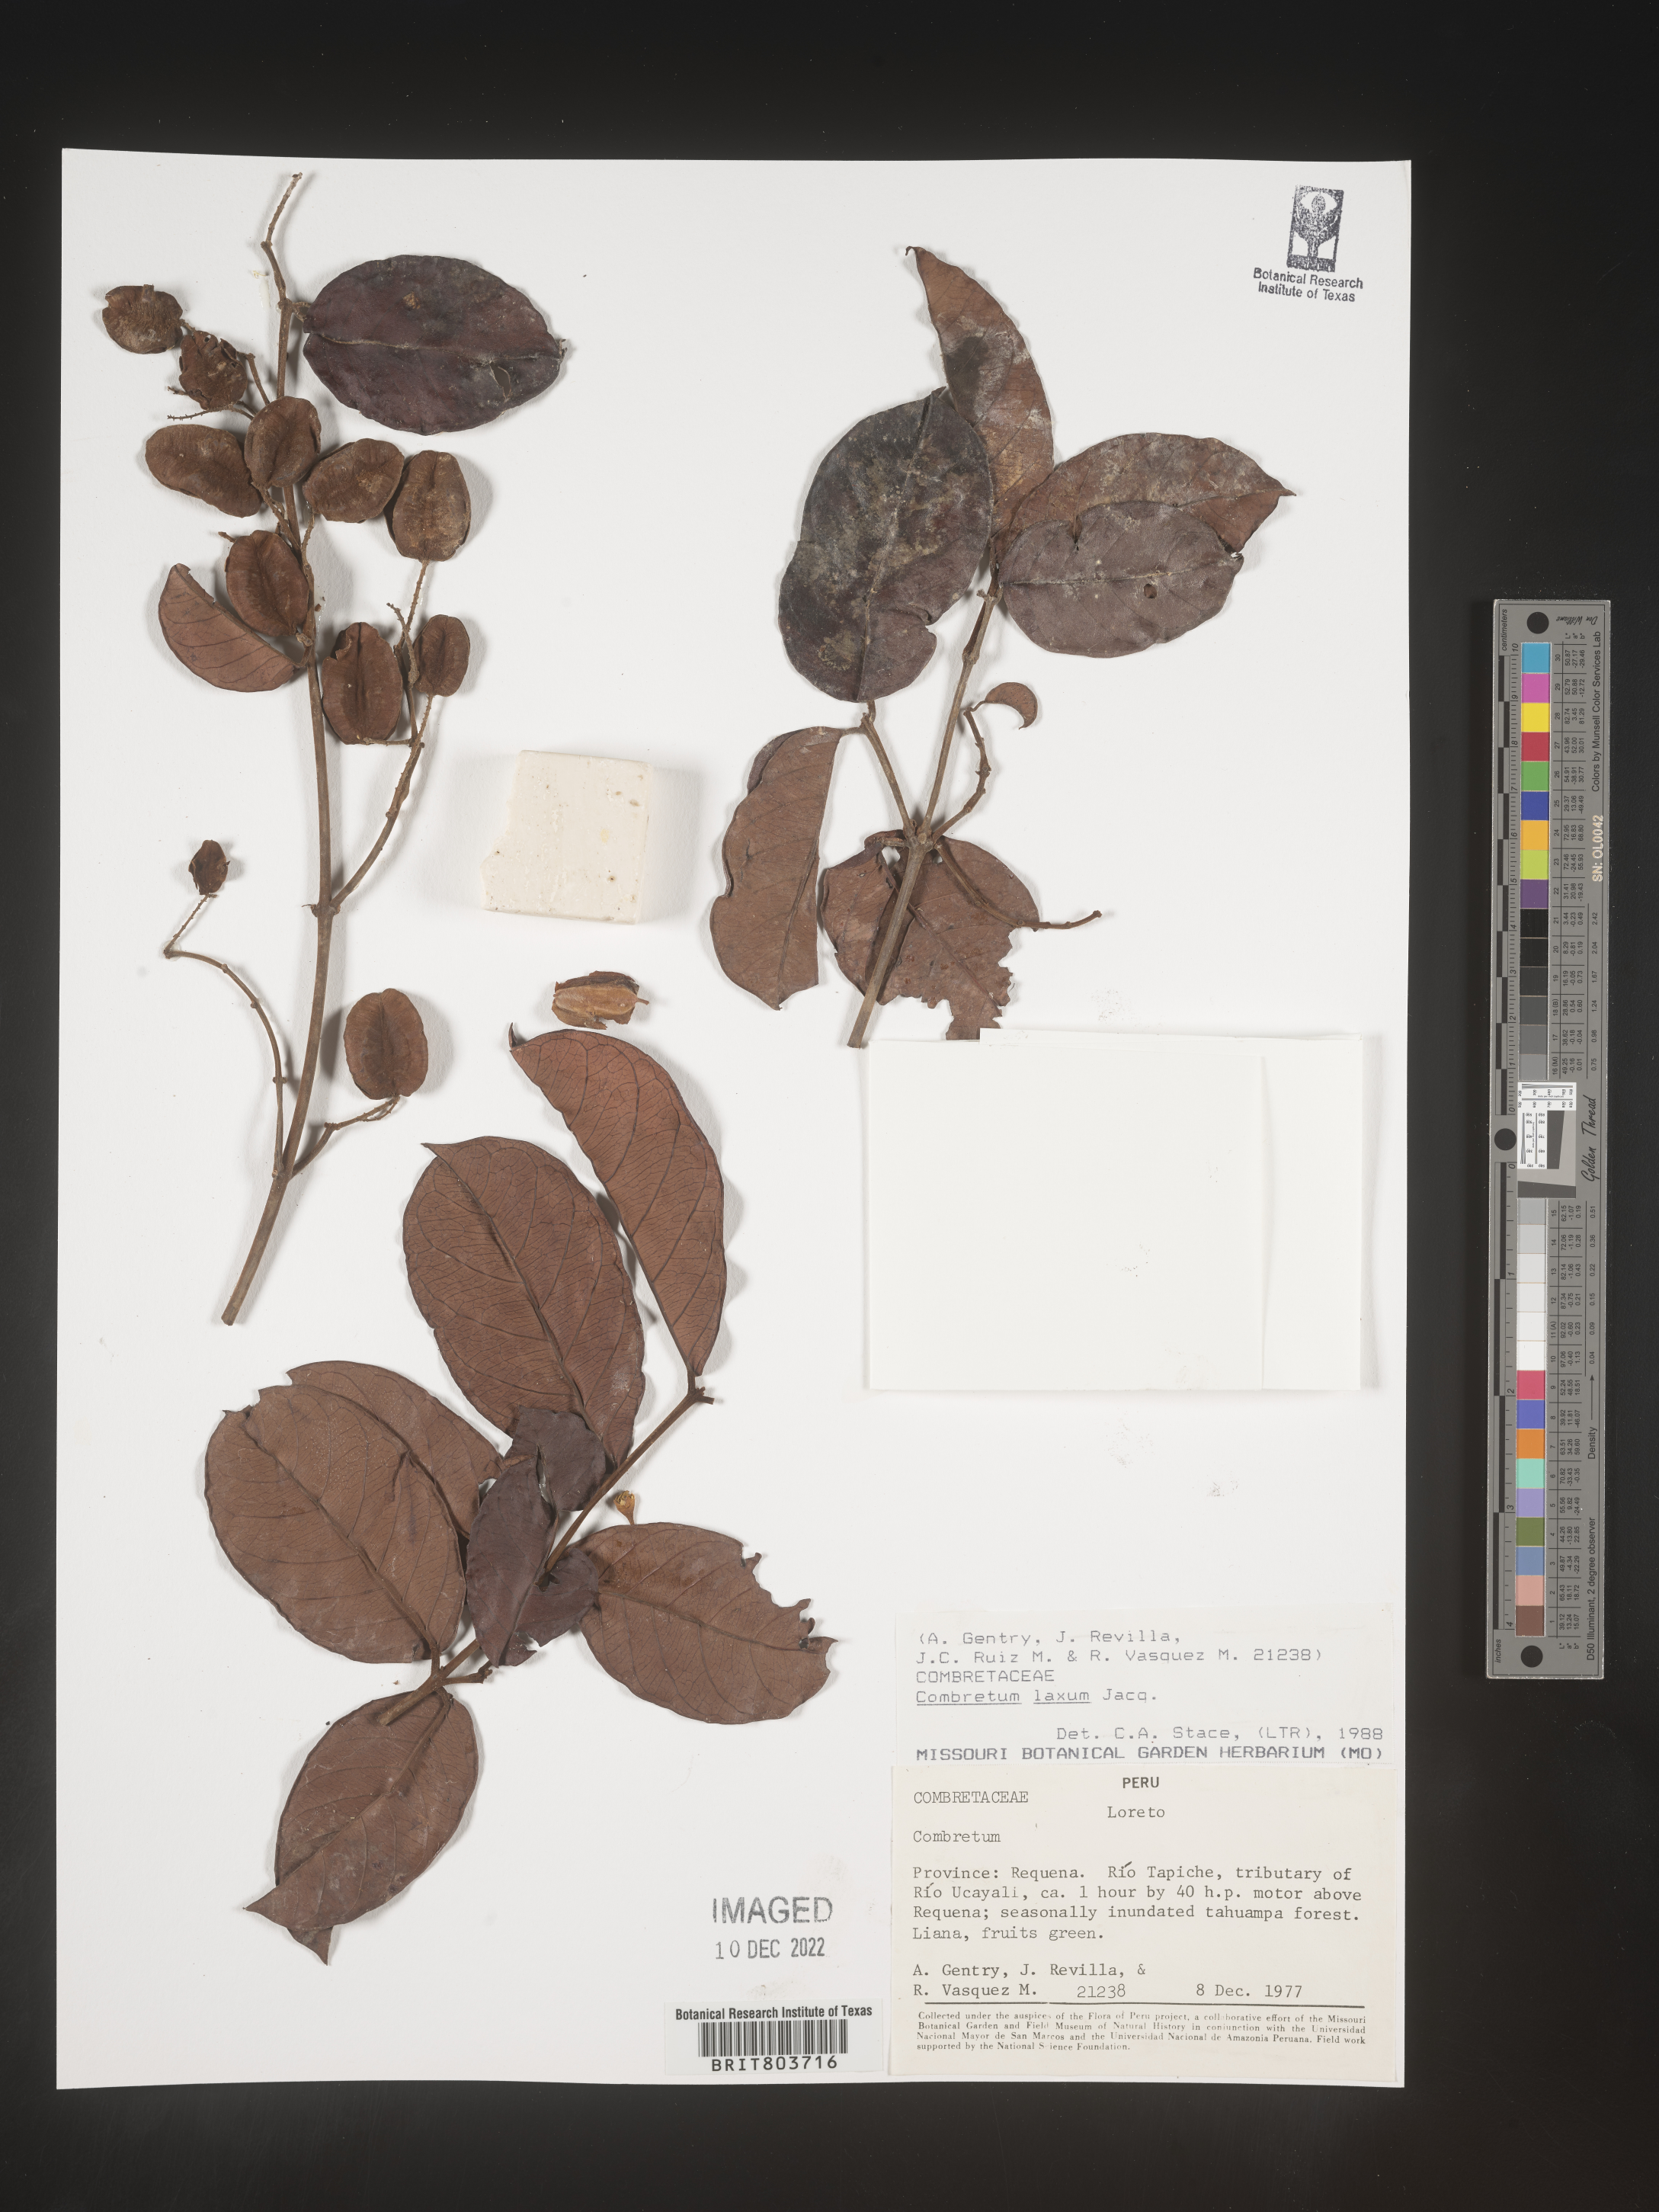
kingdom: Plantae
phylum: Tracheophyta
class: Magnoliopsida
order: Myrtales
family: Combretaceae
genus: Combretum
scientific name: Combretum
